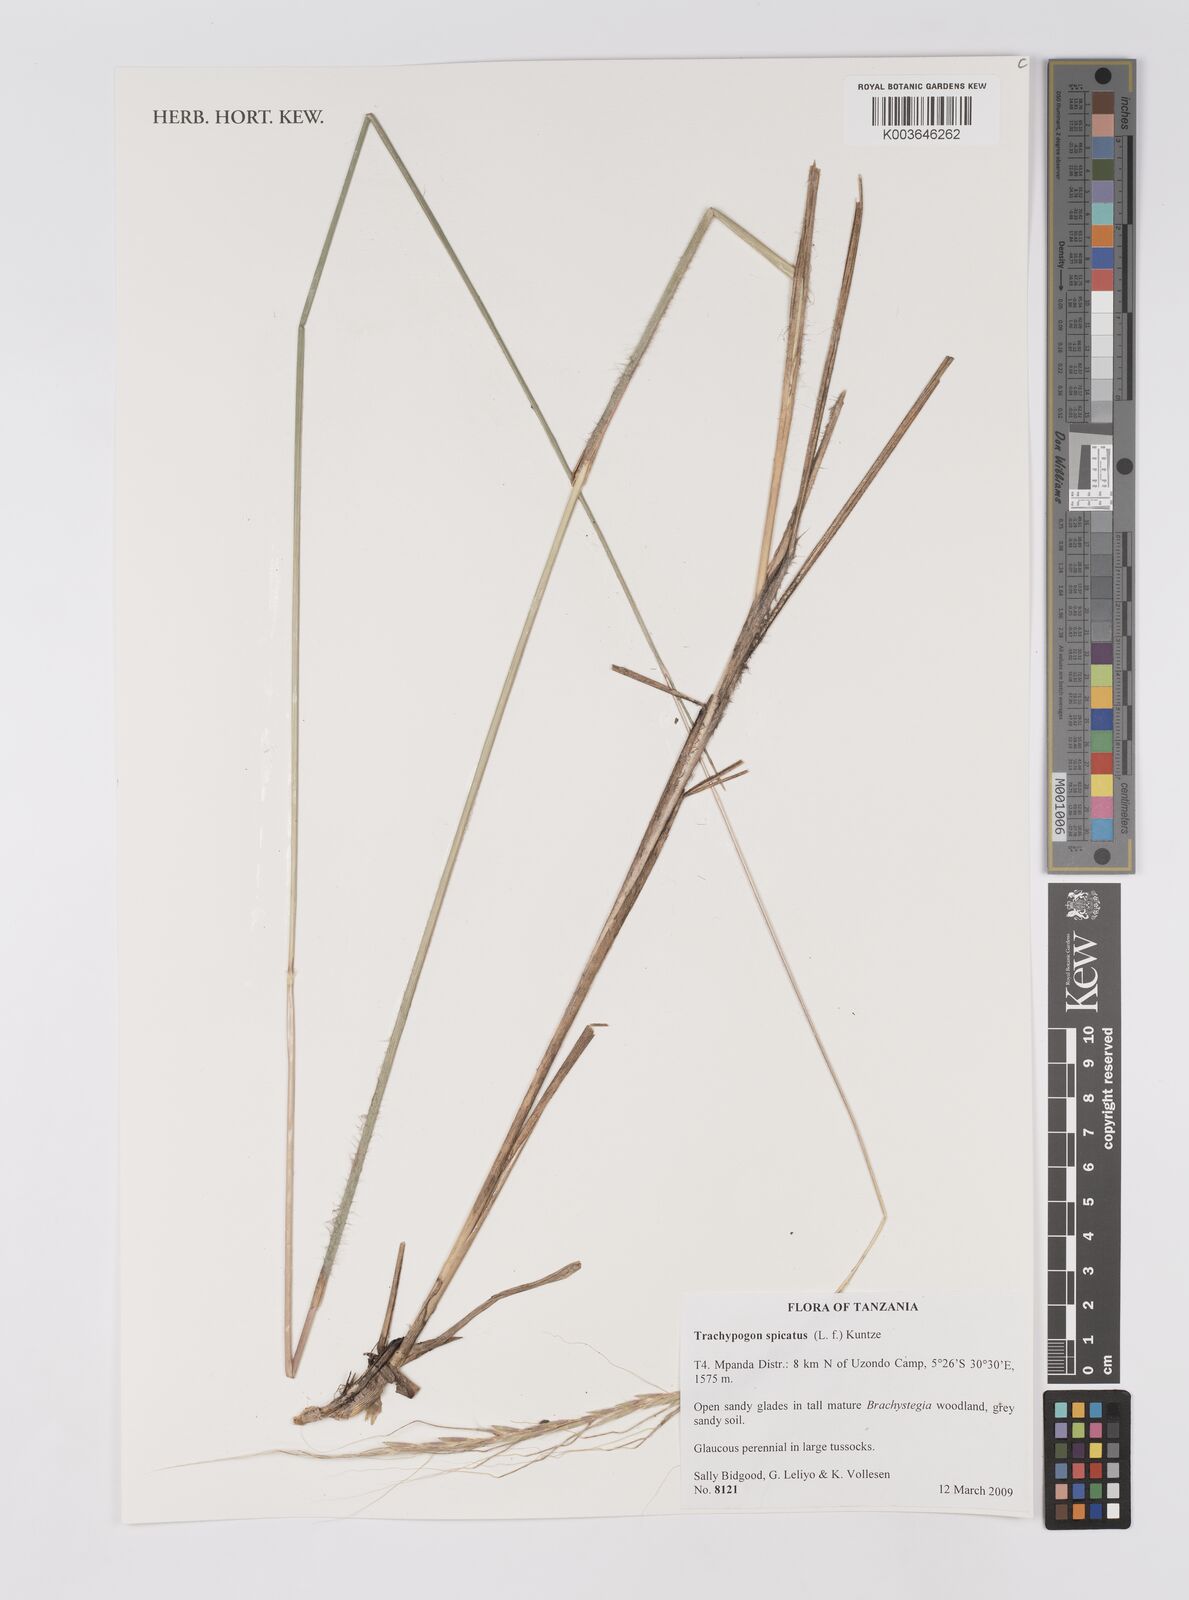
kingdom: Plantae
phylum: Tracheophyta
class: Liliopsida
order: Poales
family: Poaceae
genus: Trachypogon
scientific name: Trachypogon spicatus
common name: Crinkle-awn
